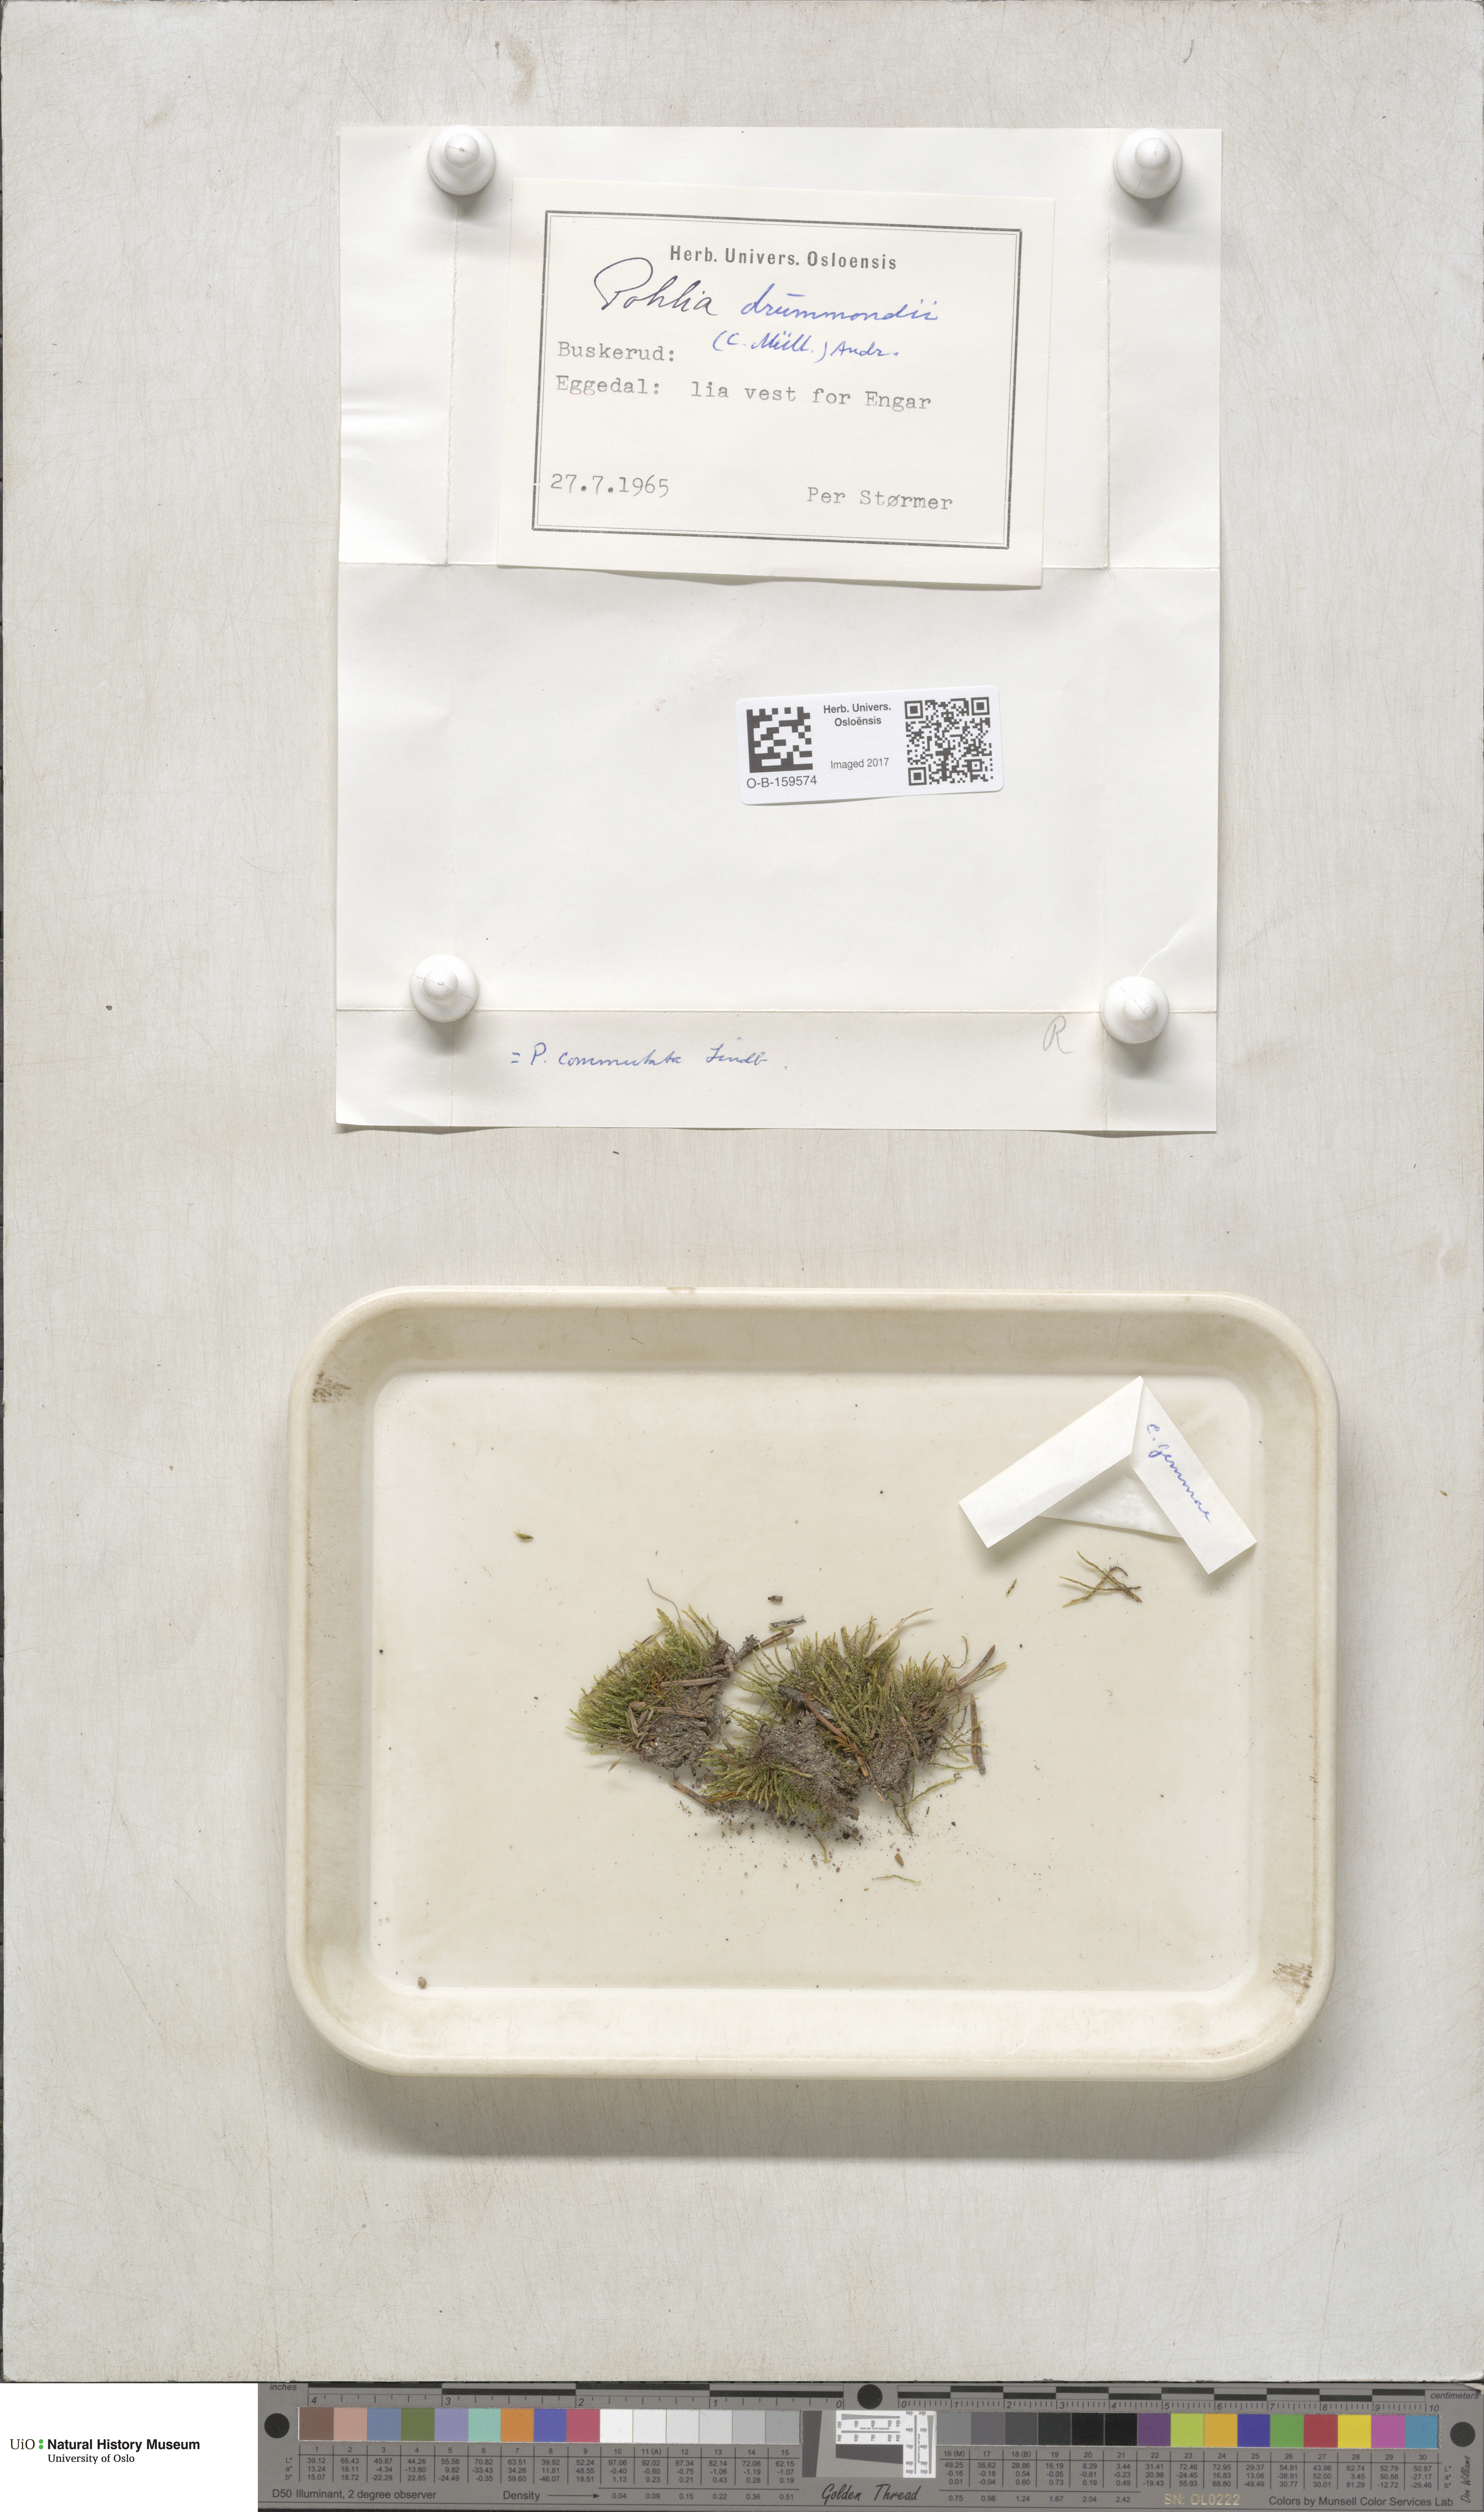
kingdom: Plantae
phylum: Bryophyta
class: Bryopsida
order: Bryales
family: Mniaceae
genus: Pohlia
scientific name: Pohlia drummondii
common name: Drummond's nodding moss
